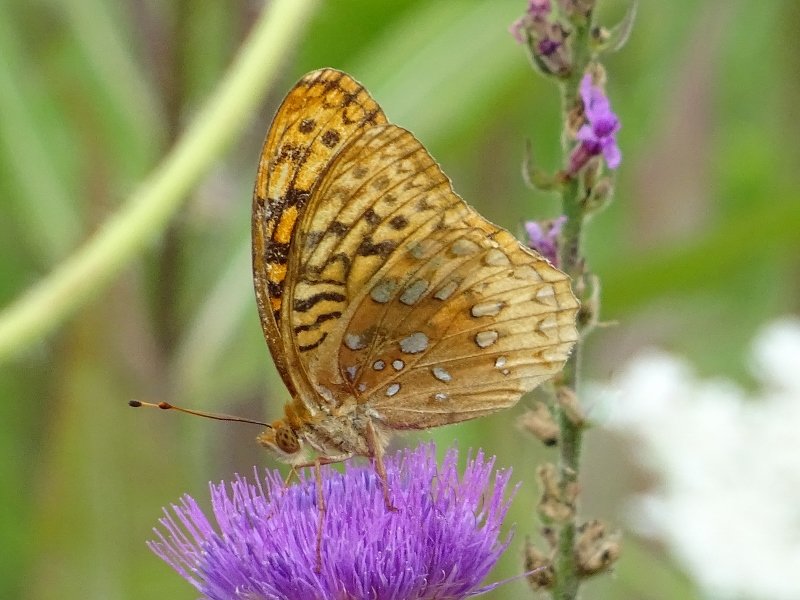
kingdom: Animalia
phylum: Arthropoda
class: Insecta
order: Lepidoptera
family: Nymphalidae
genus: Speyeria
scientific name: Speyeria cybele
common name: Great Spangled Fritillary
